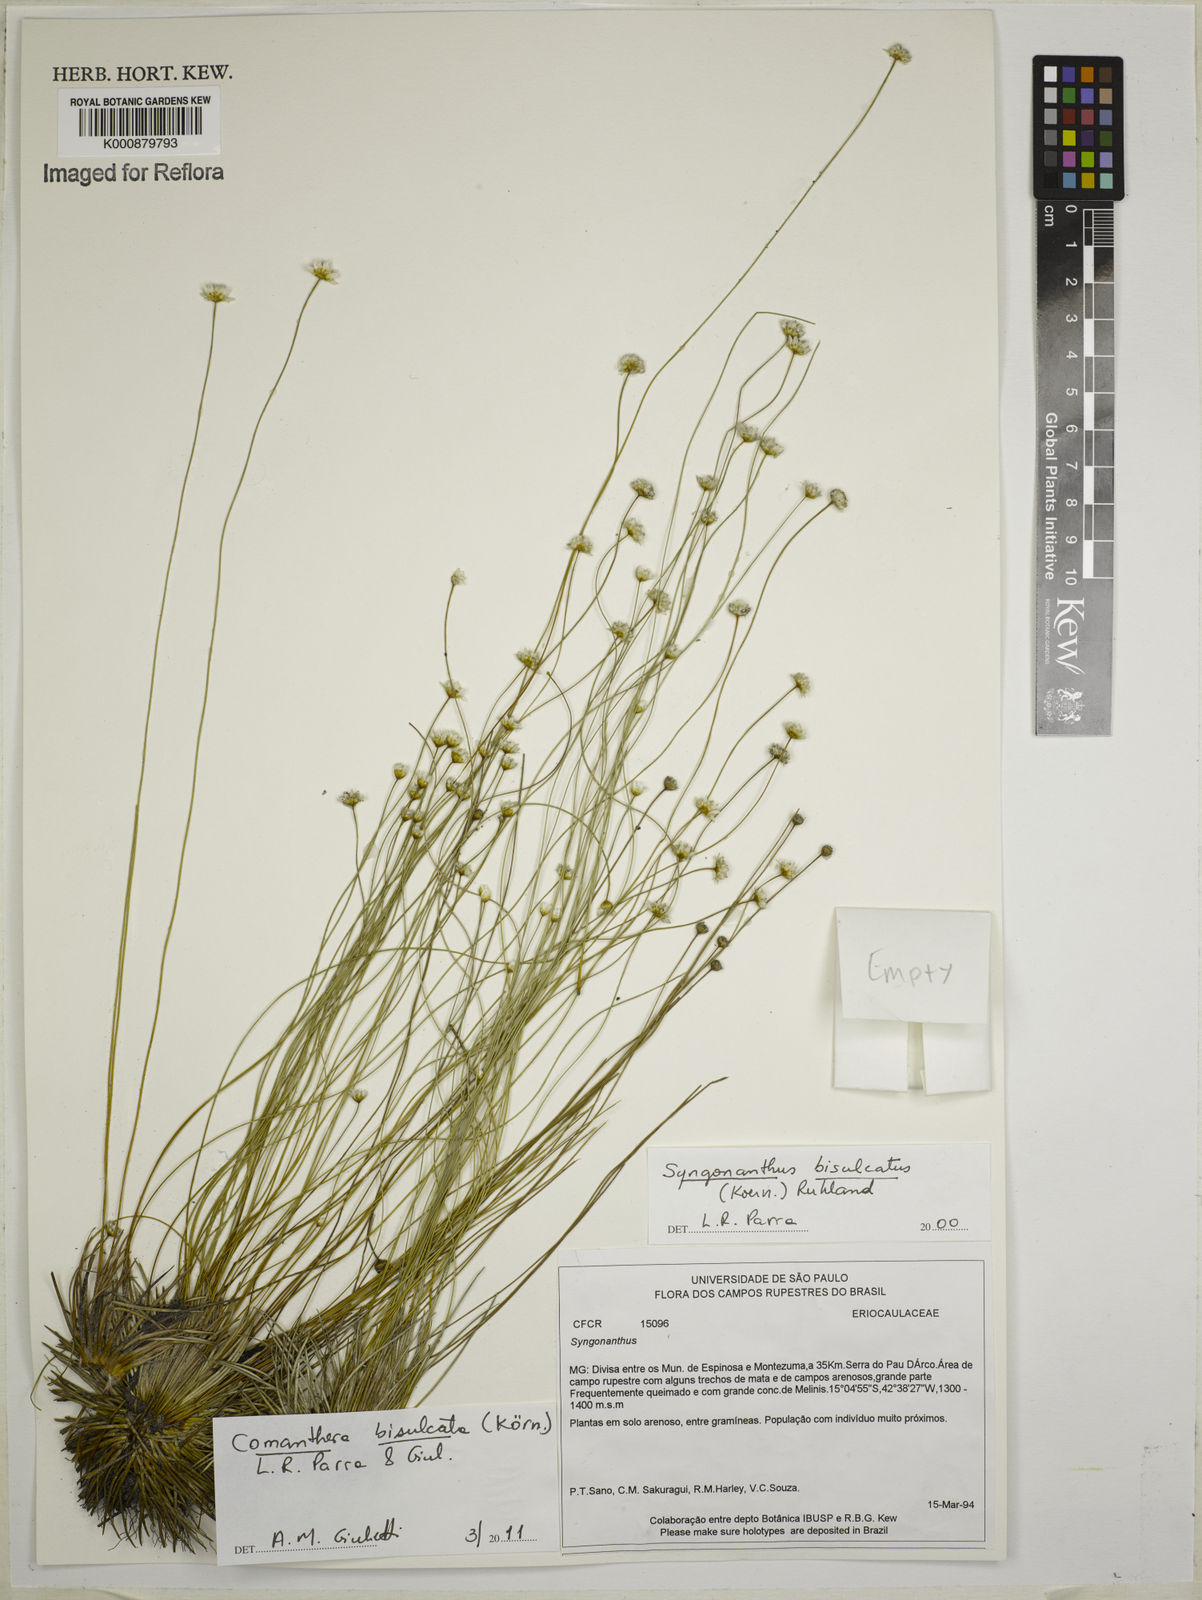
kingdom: Plantae
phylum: Tracheophyta
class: Liliopsida
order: Poales
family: Eriocaulaceae
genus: Comanthera
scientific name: Comanthera
